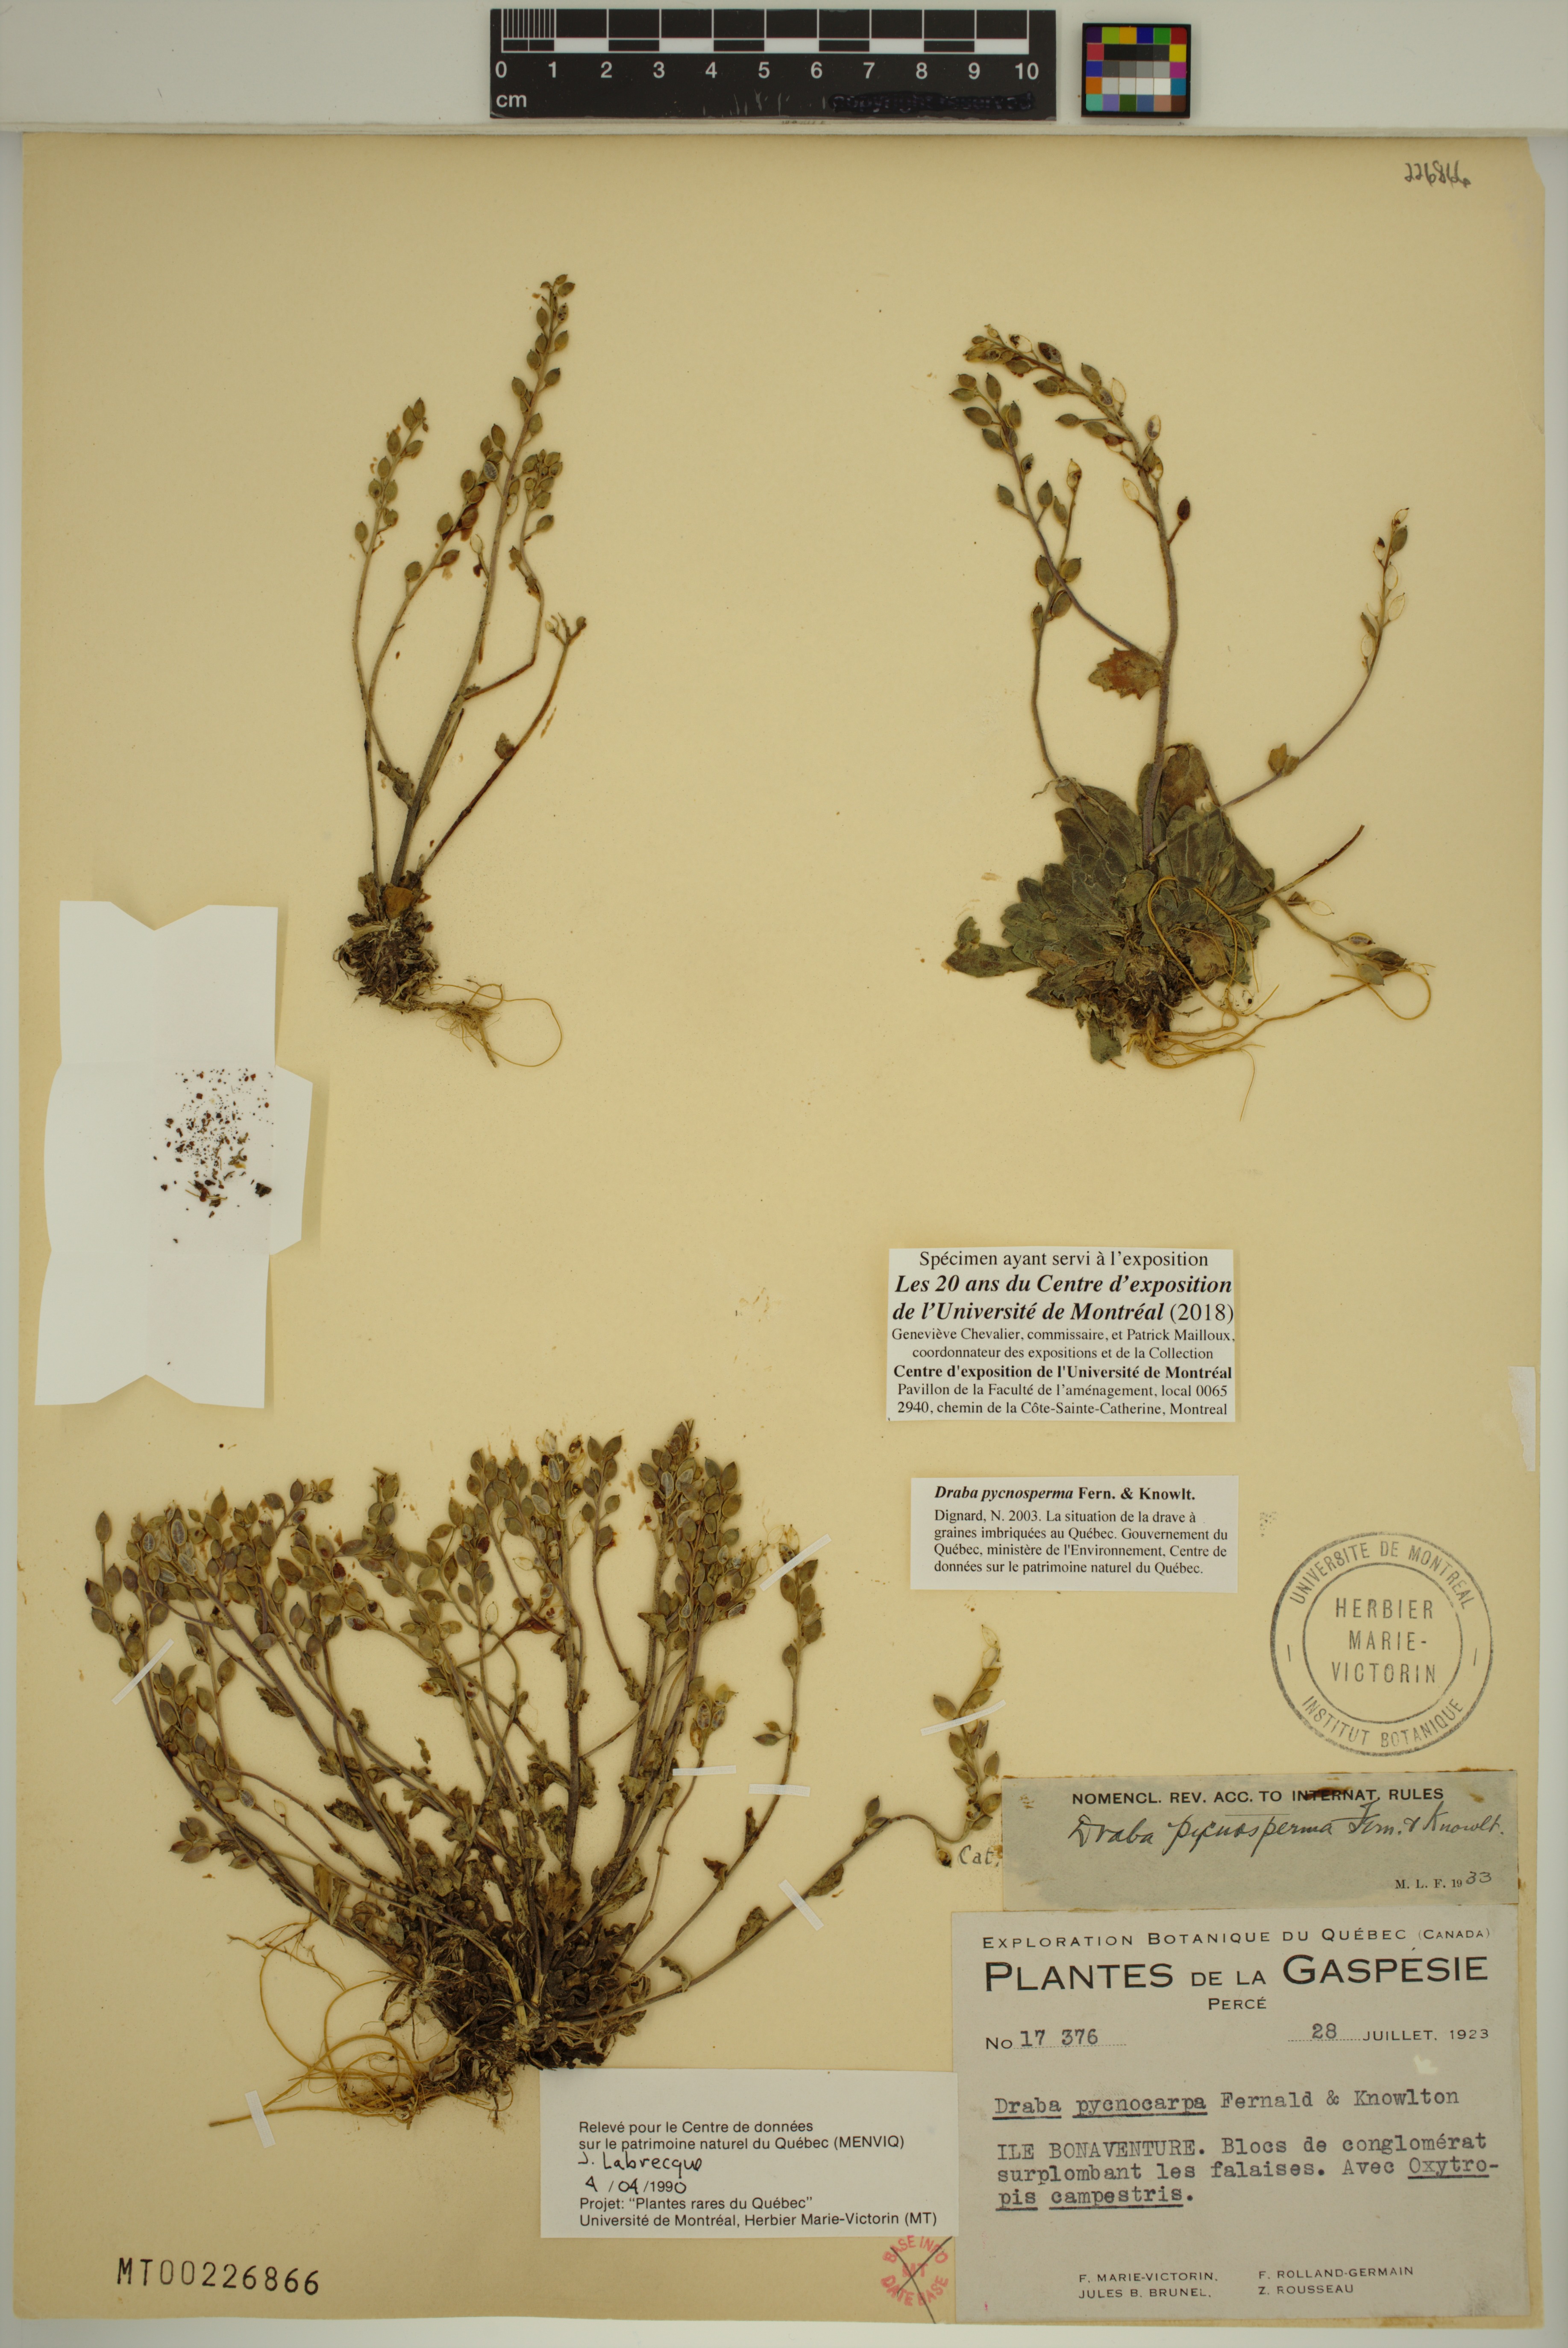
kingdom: Plantae
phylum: Tracheophyta
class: Magnoliopsida
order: Brassicales
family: Brassicaceae
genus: Draba
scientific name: Draba pycnosperma
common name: Dense draba
